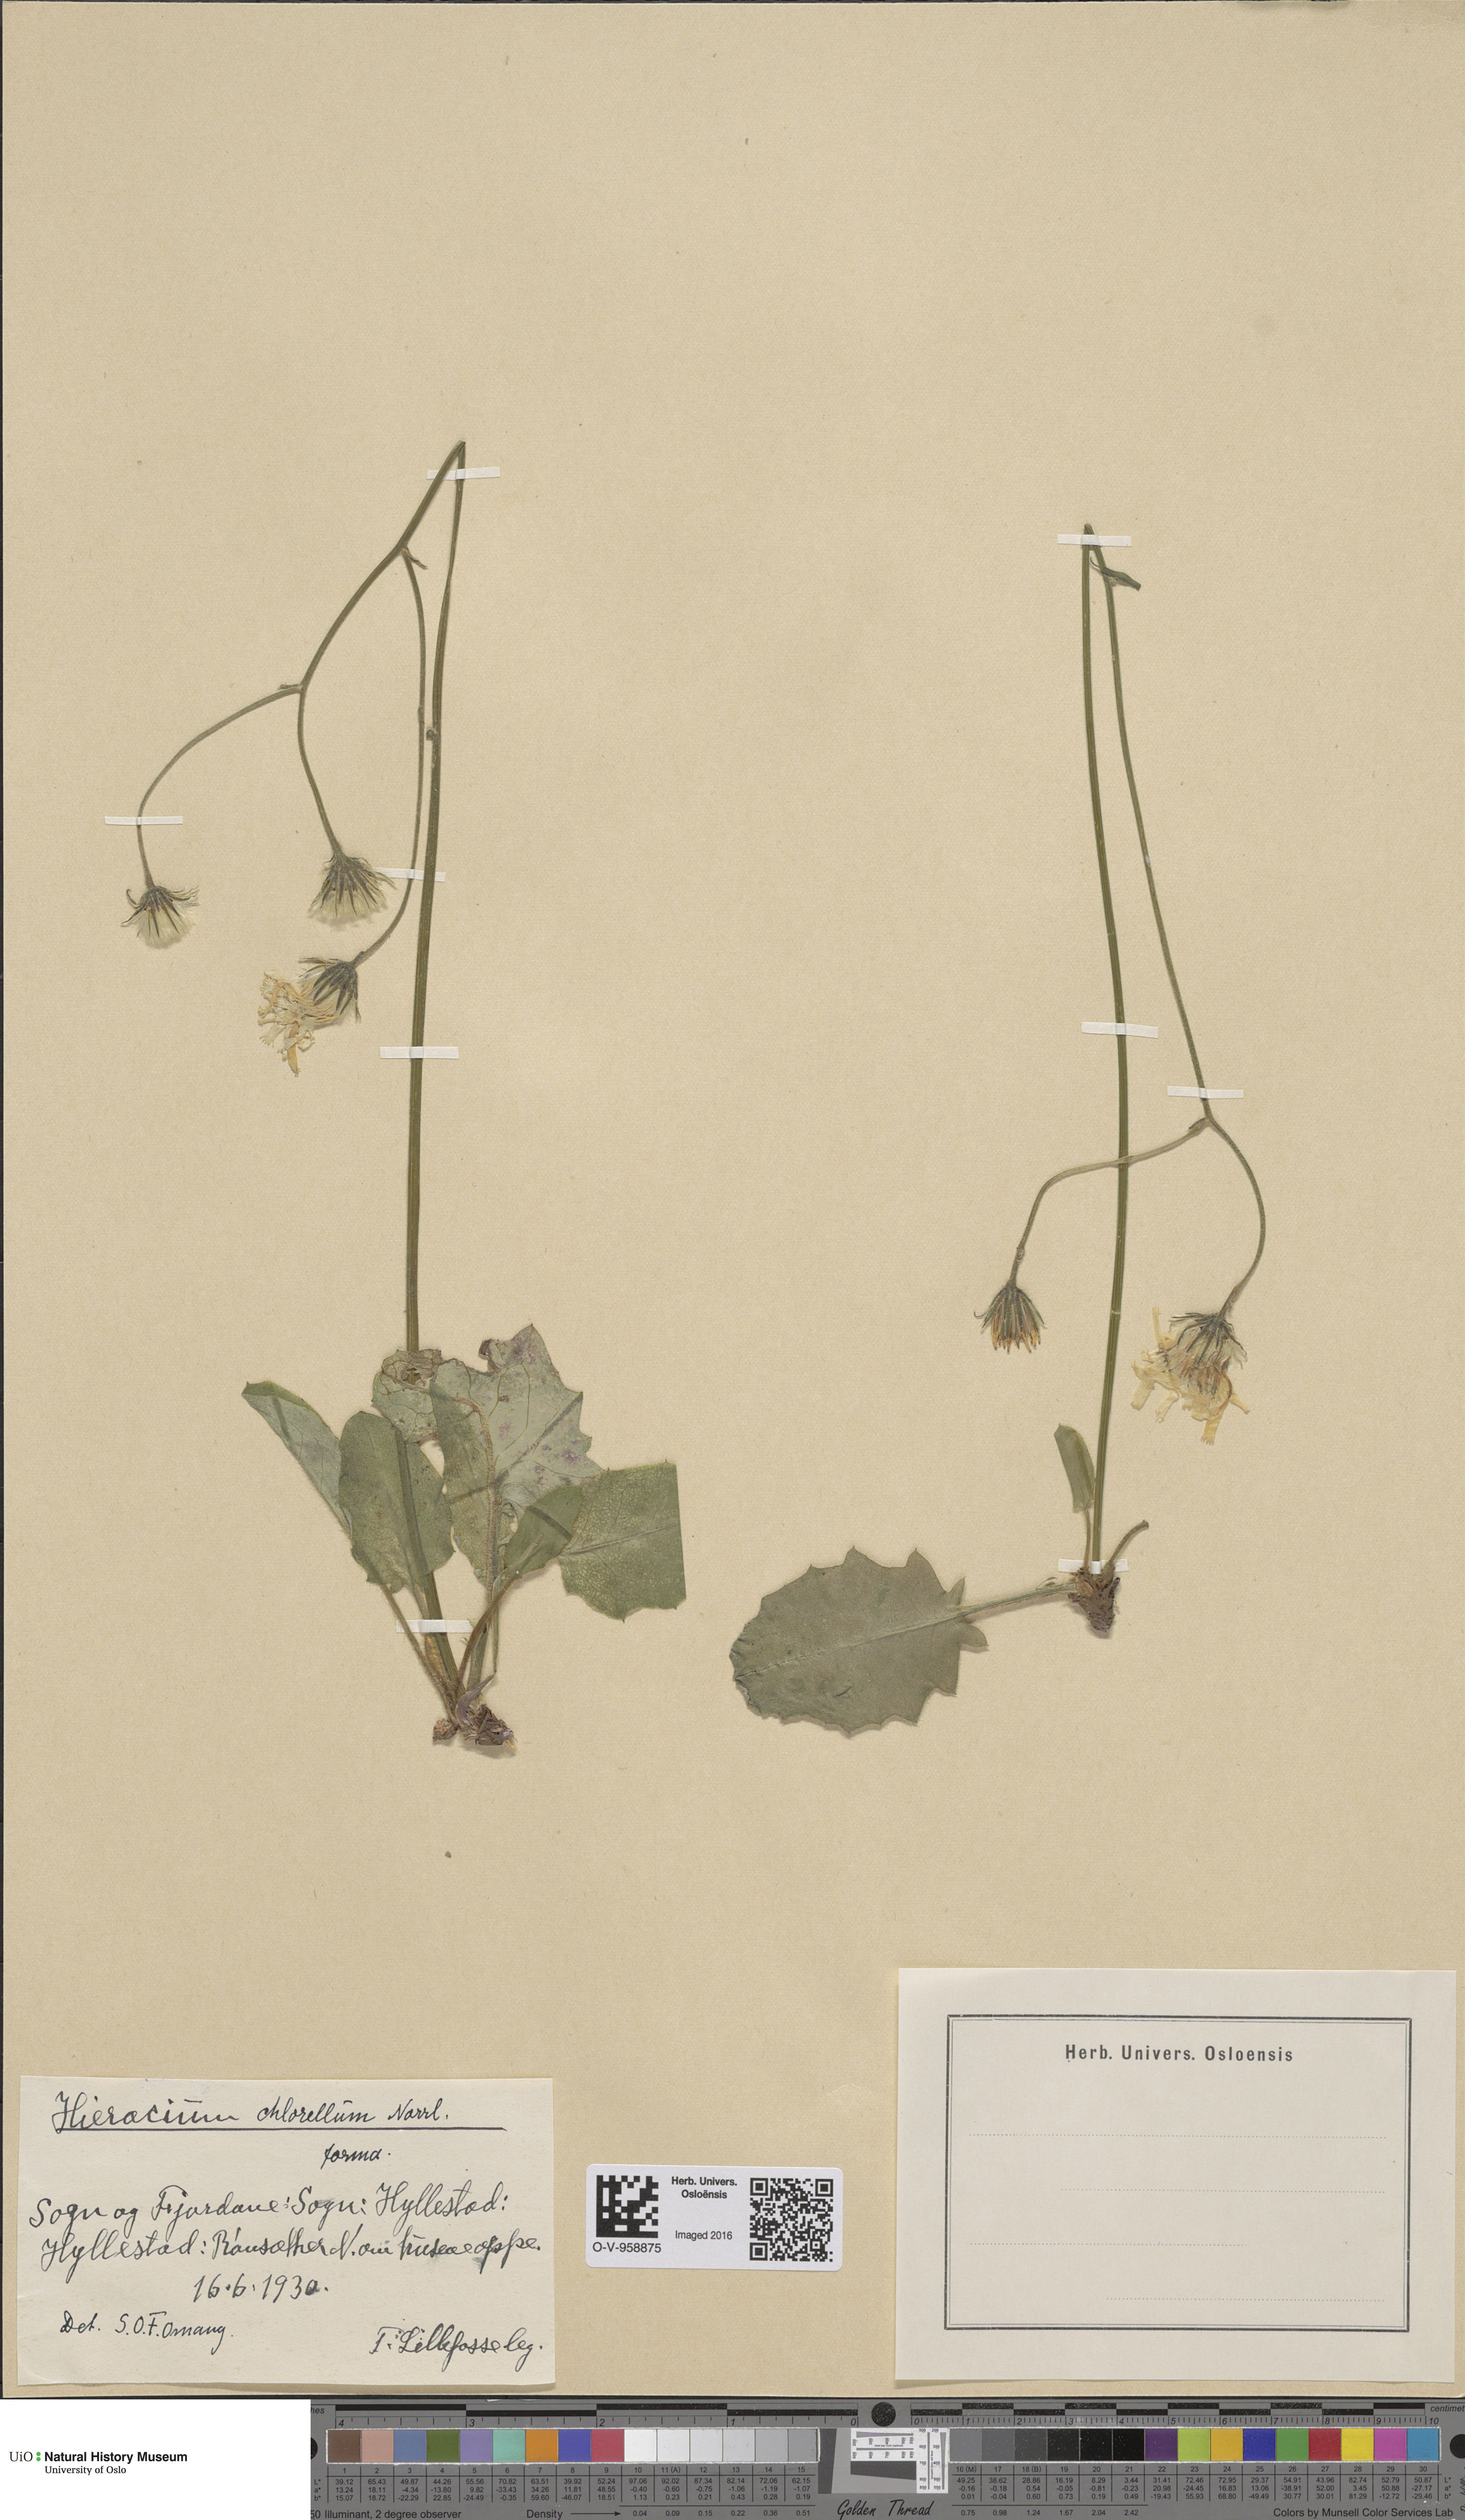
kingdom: Plantae
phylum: Tracheophyta
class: Magnoliopsida
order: Asterales
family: Asteraceae
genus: Hieracium
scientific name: Hieracium chlorellum
